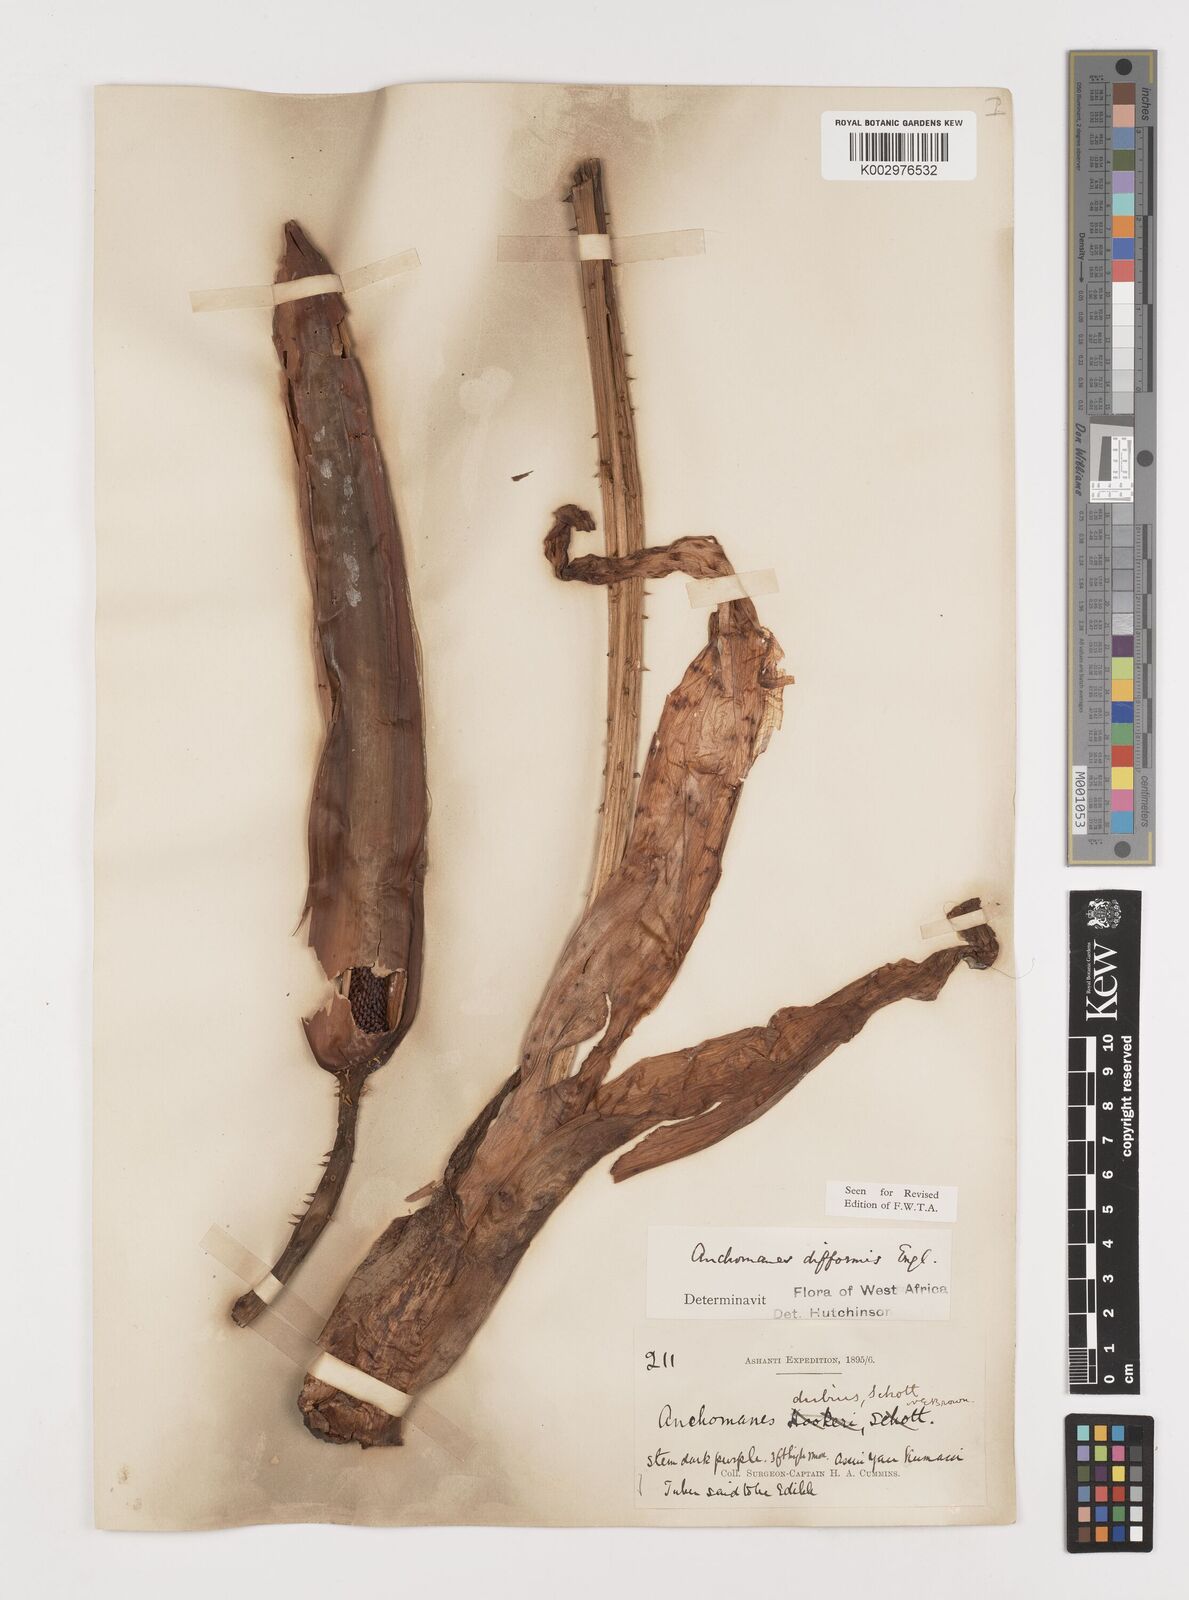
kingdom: Plantae
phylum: Tracheophyta
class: Liliopsida
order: Alismatales
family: Araceae
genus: Anchomanes
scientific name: Anchomanes difformis
